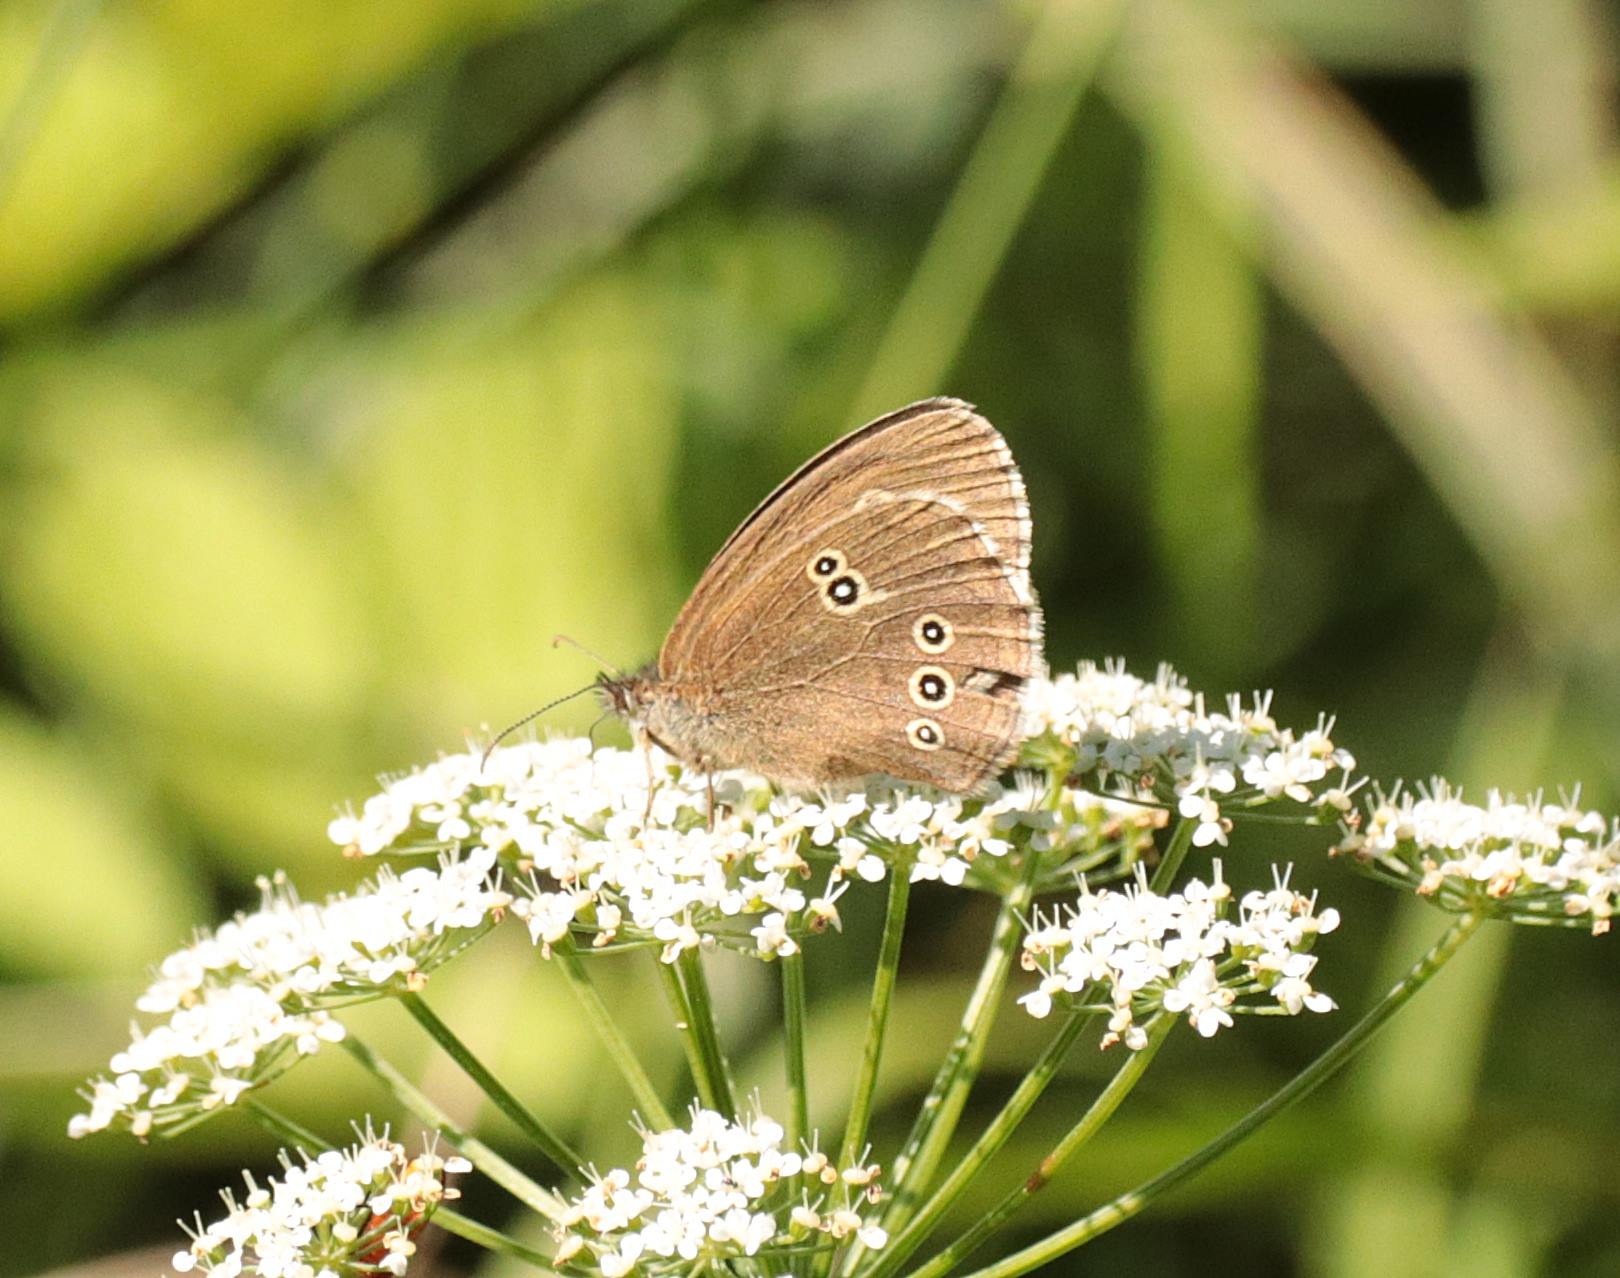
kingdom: Animalia
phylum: Arthropoda
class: Insecta
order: Lepidoptera
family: Nymphalidae
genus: Aphantopus
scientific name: Aphantopus hyperantus
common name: Engrandøje
